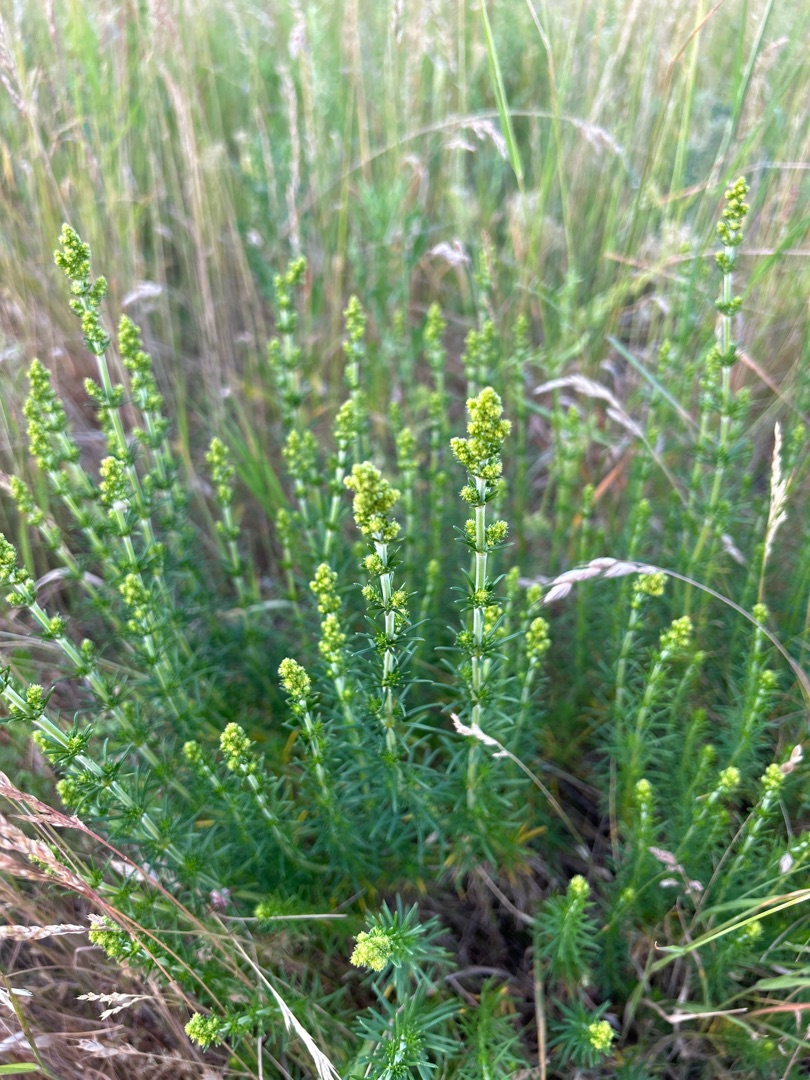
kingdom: Plantae
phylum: Tracheophyta
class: Magnoliopsida
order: Gentianales
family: Rubiaceae
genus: Galium
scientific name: Galium verum
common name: Gul snerre
